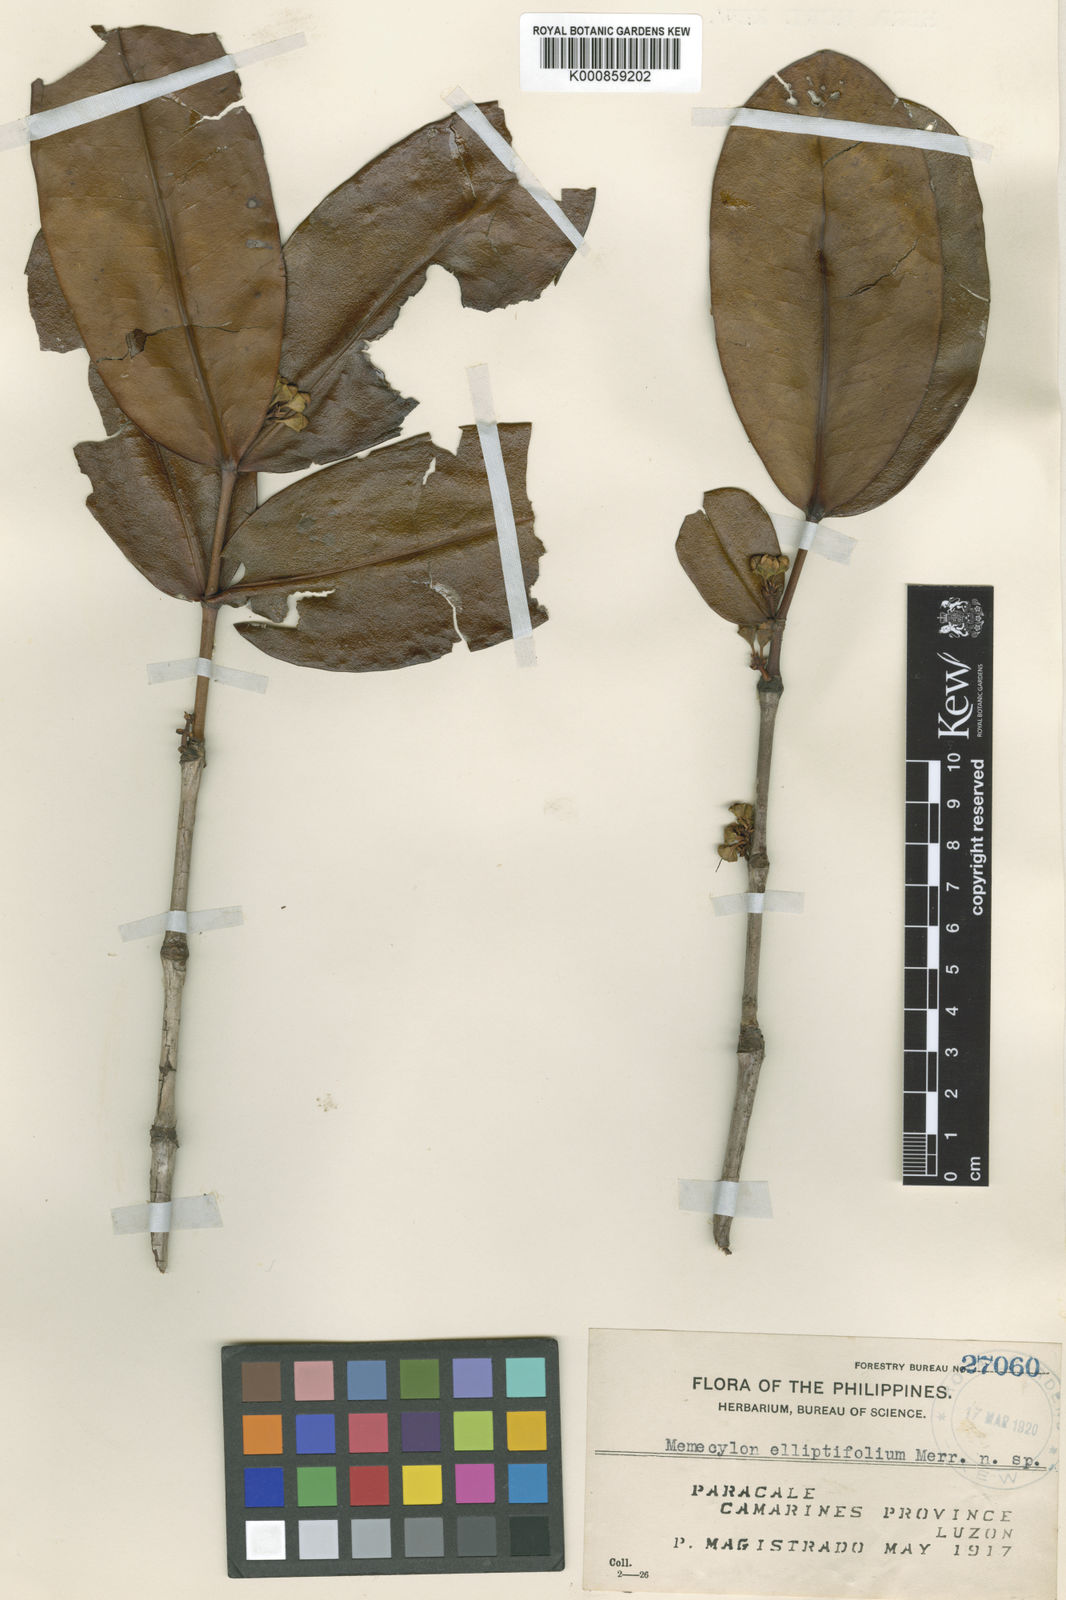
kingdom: Plantae
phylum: Tracheophyta
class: Magnoliopsida
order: Myrtales
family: Melastomataceae
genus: Memecylon
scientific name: Memecylon elliptifolium
